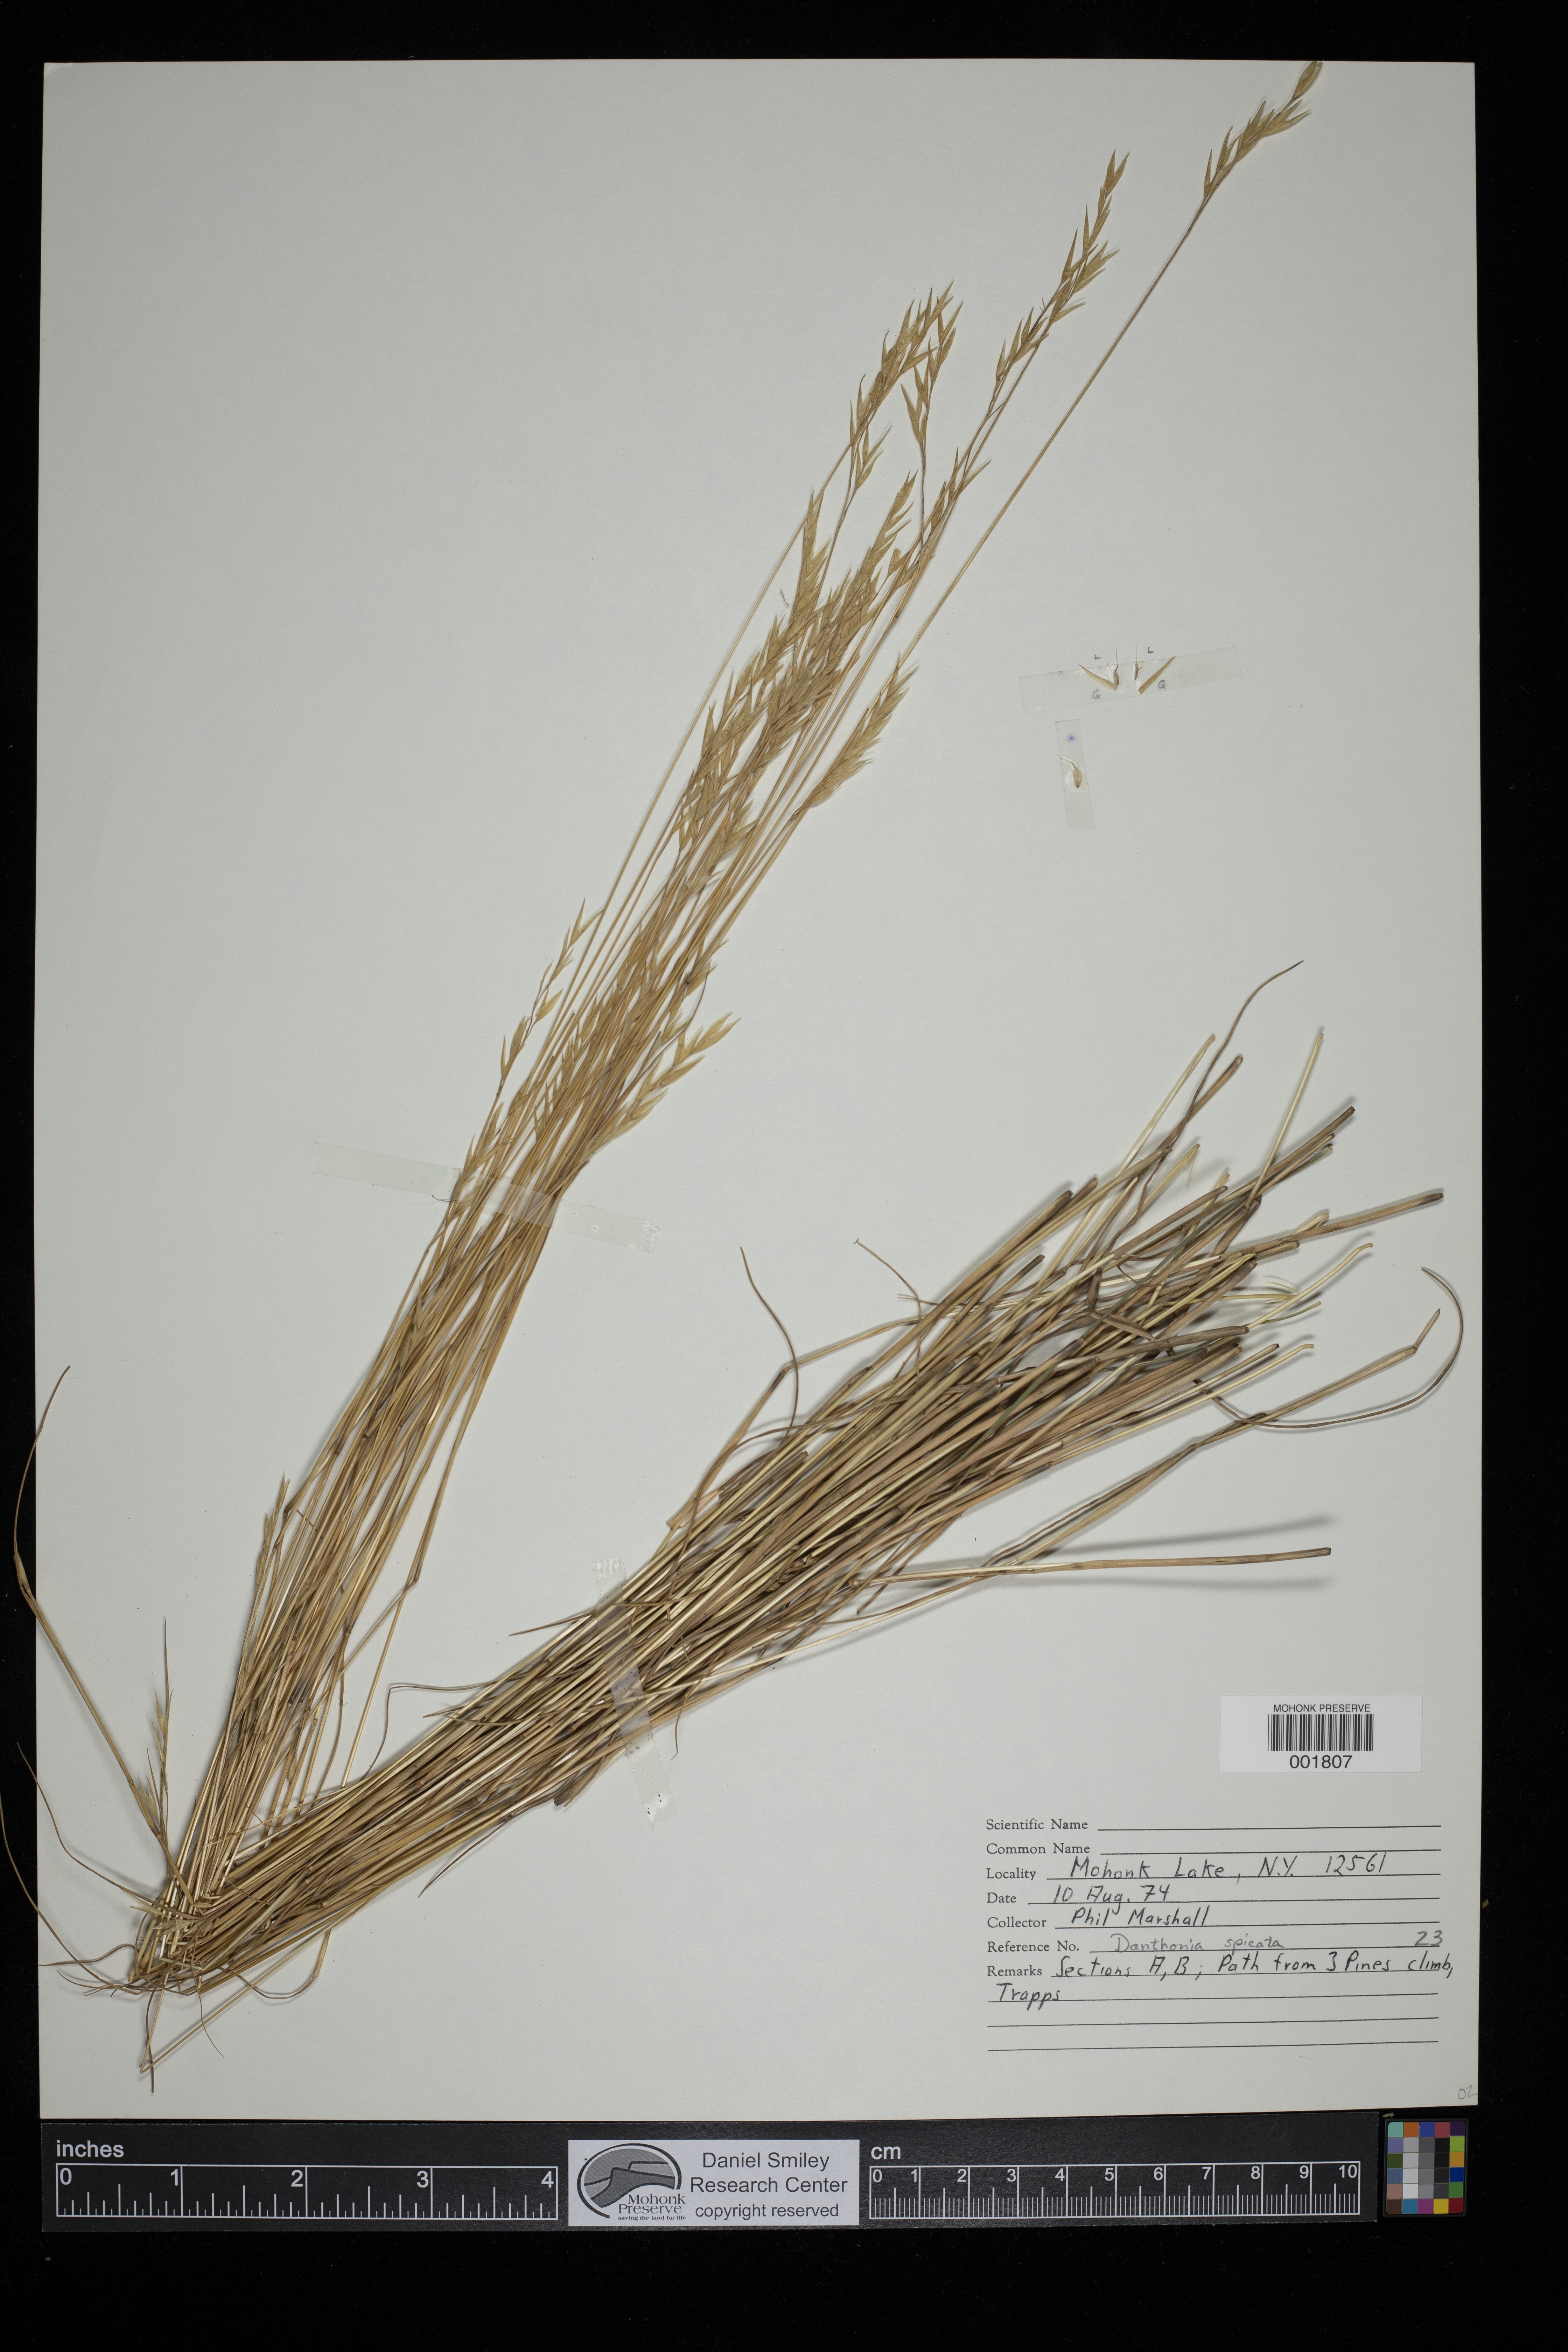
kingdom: Plantae
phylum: Tracheophyta
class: Liliopsida
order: Poales
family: Poaceae
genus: Danthonia
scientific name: Danthonia spicata
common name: Common wild oatgrass
